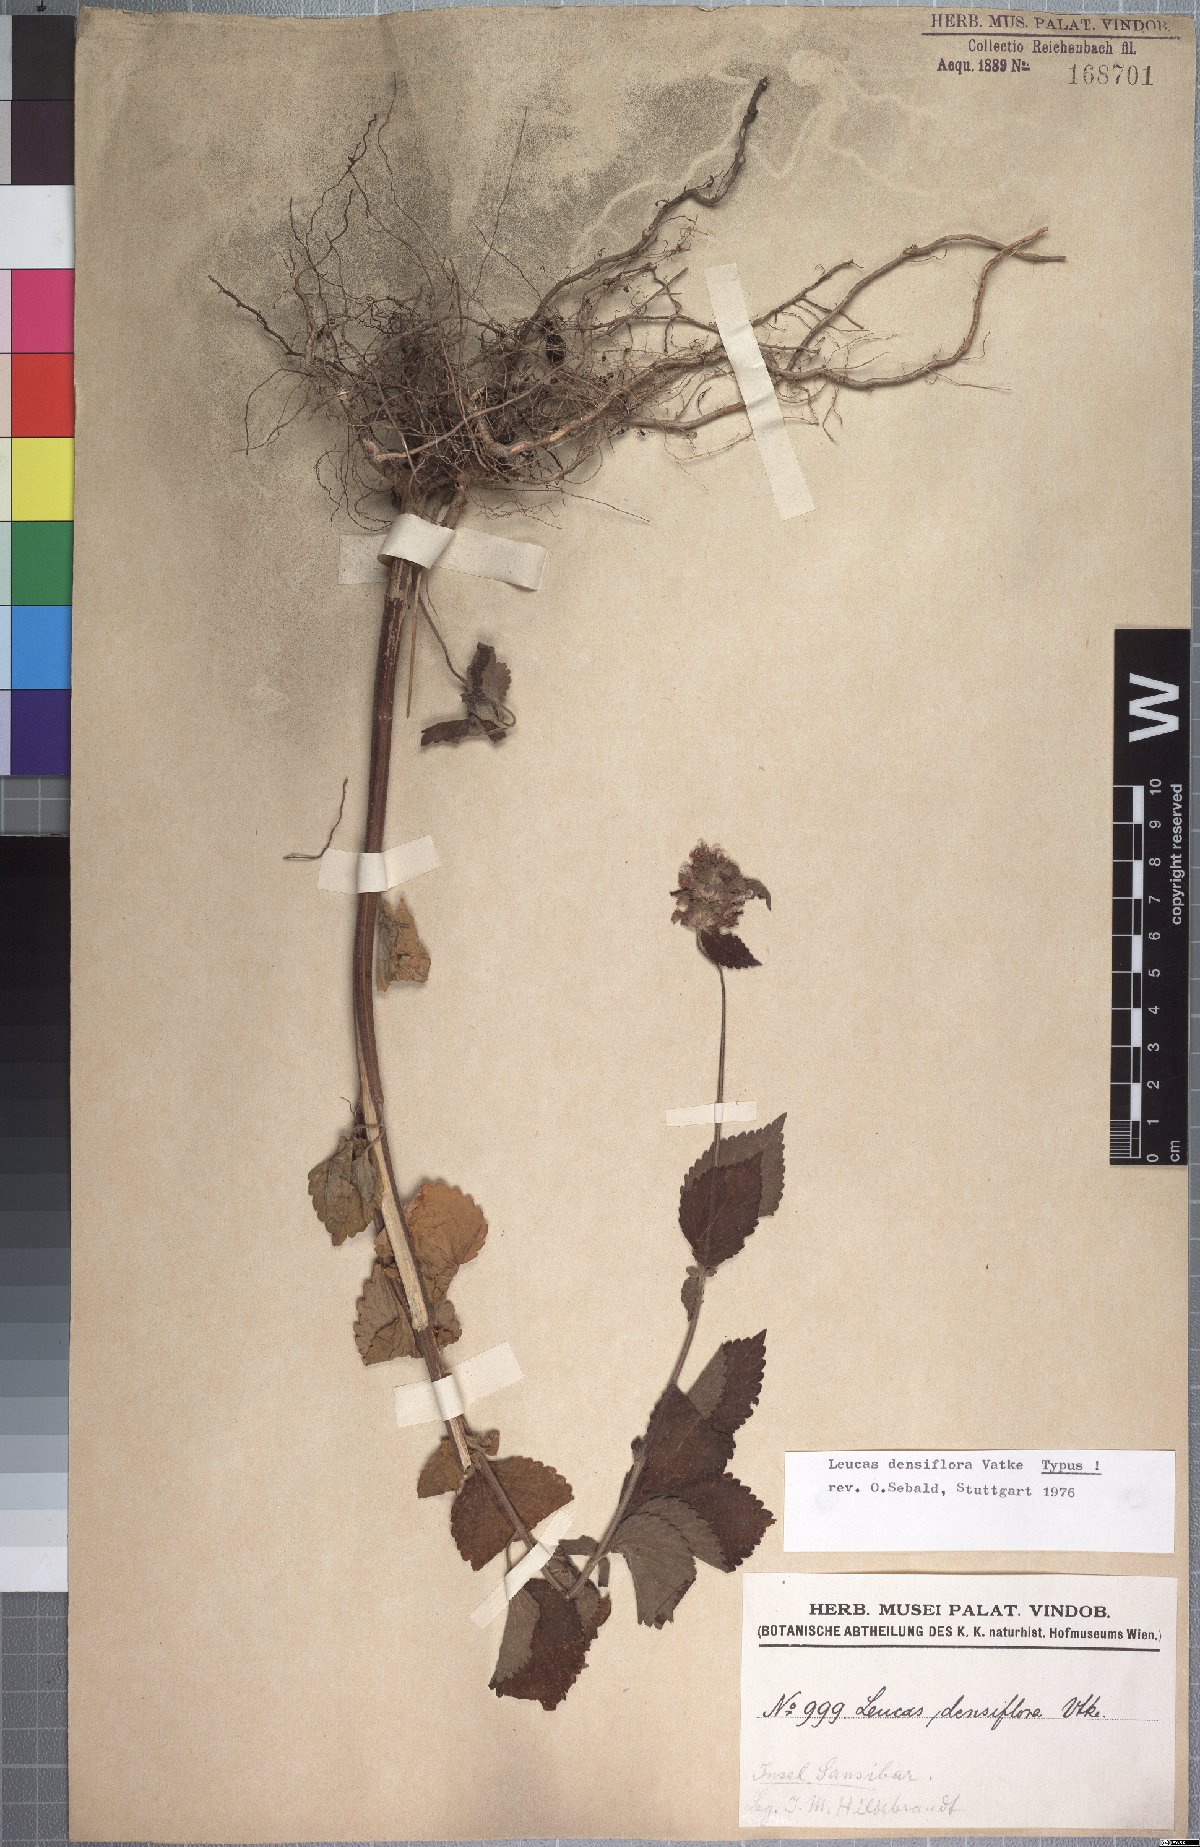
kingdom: Plantae
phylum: Tracheophyta
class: Magnoliopsida
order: Lamiales
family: Lamiaceae
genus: Leucas
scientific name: Leucas densiflora
